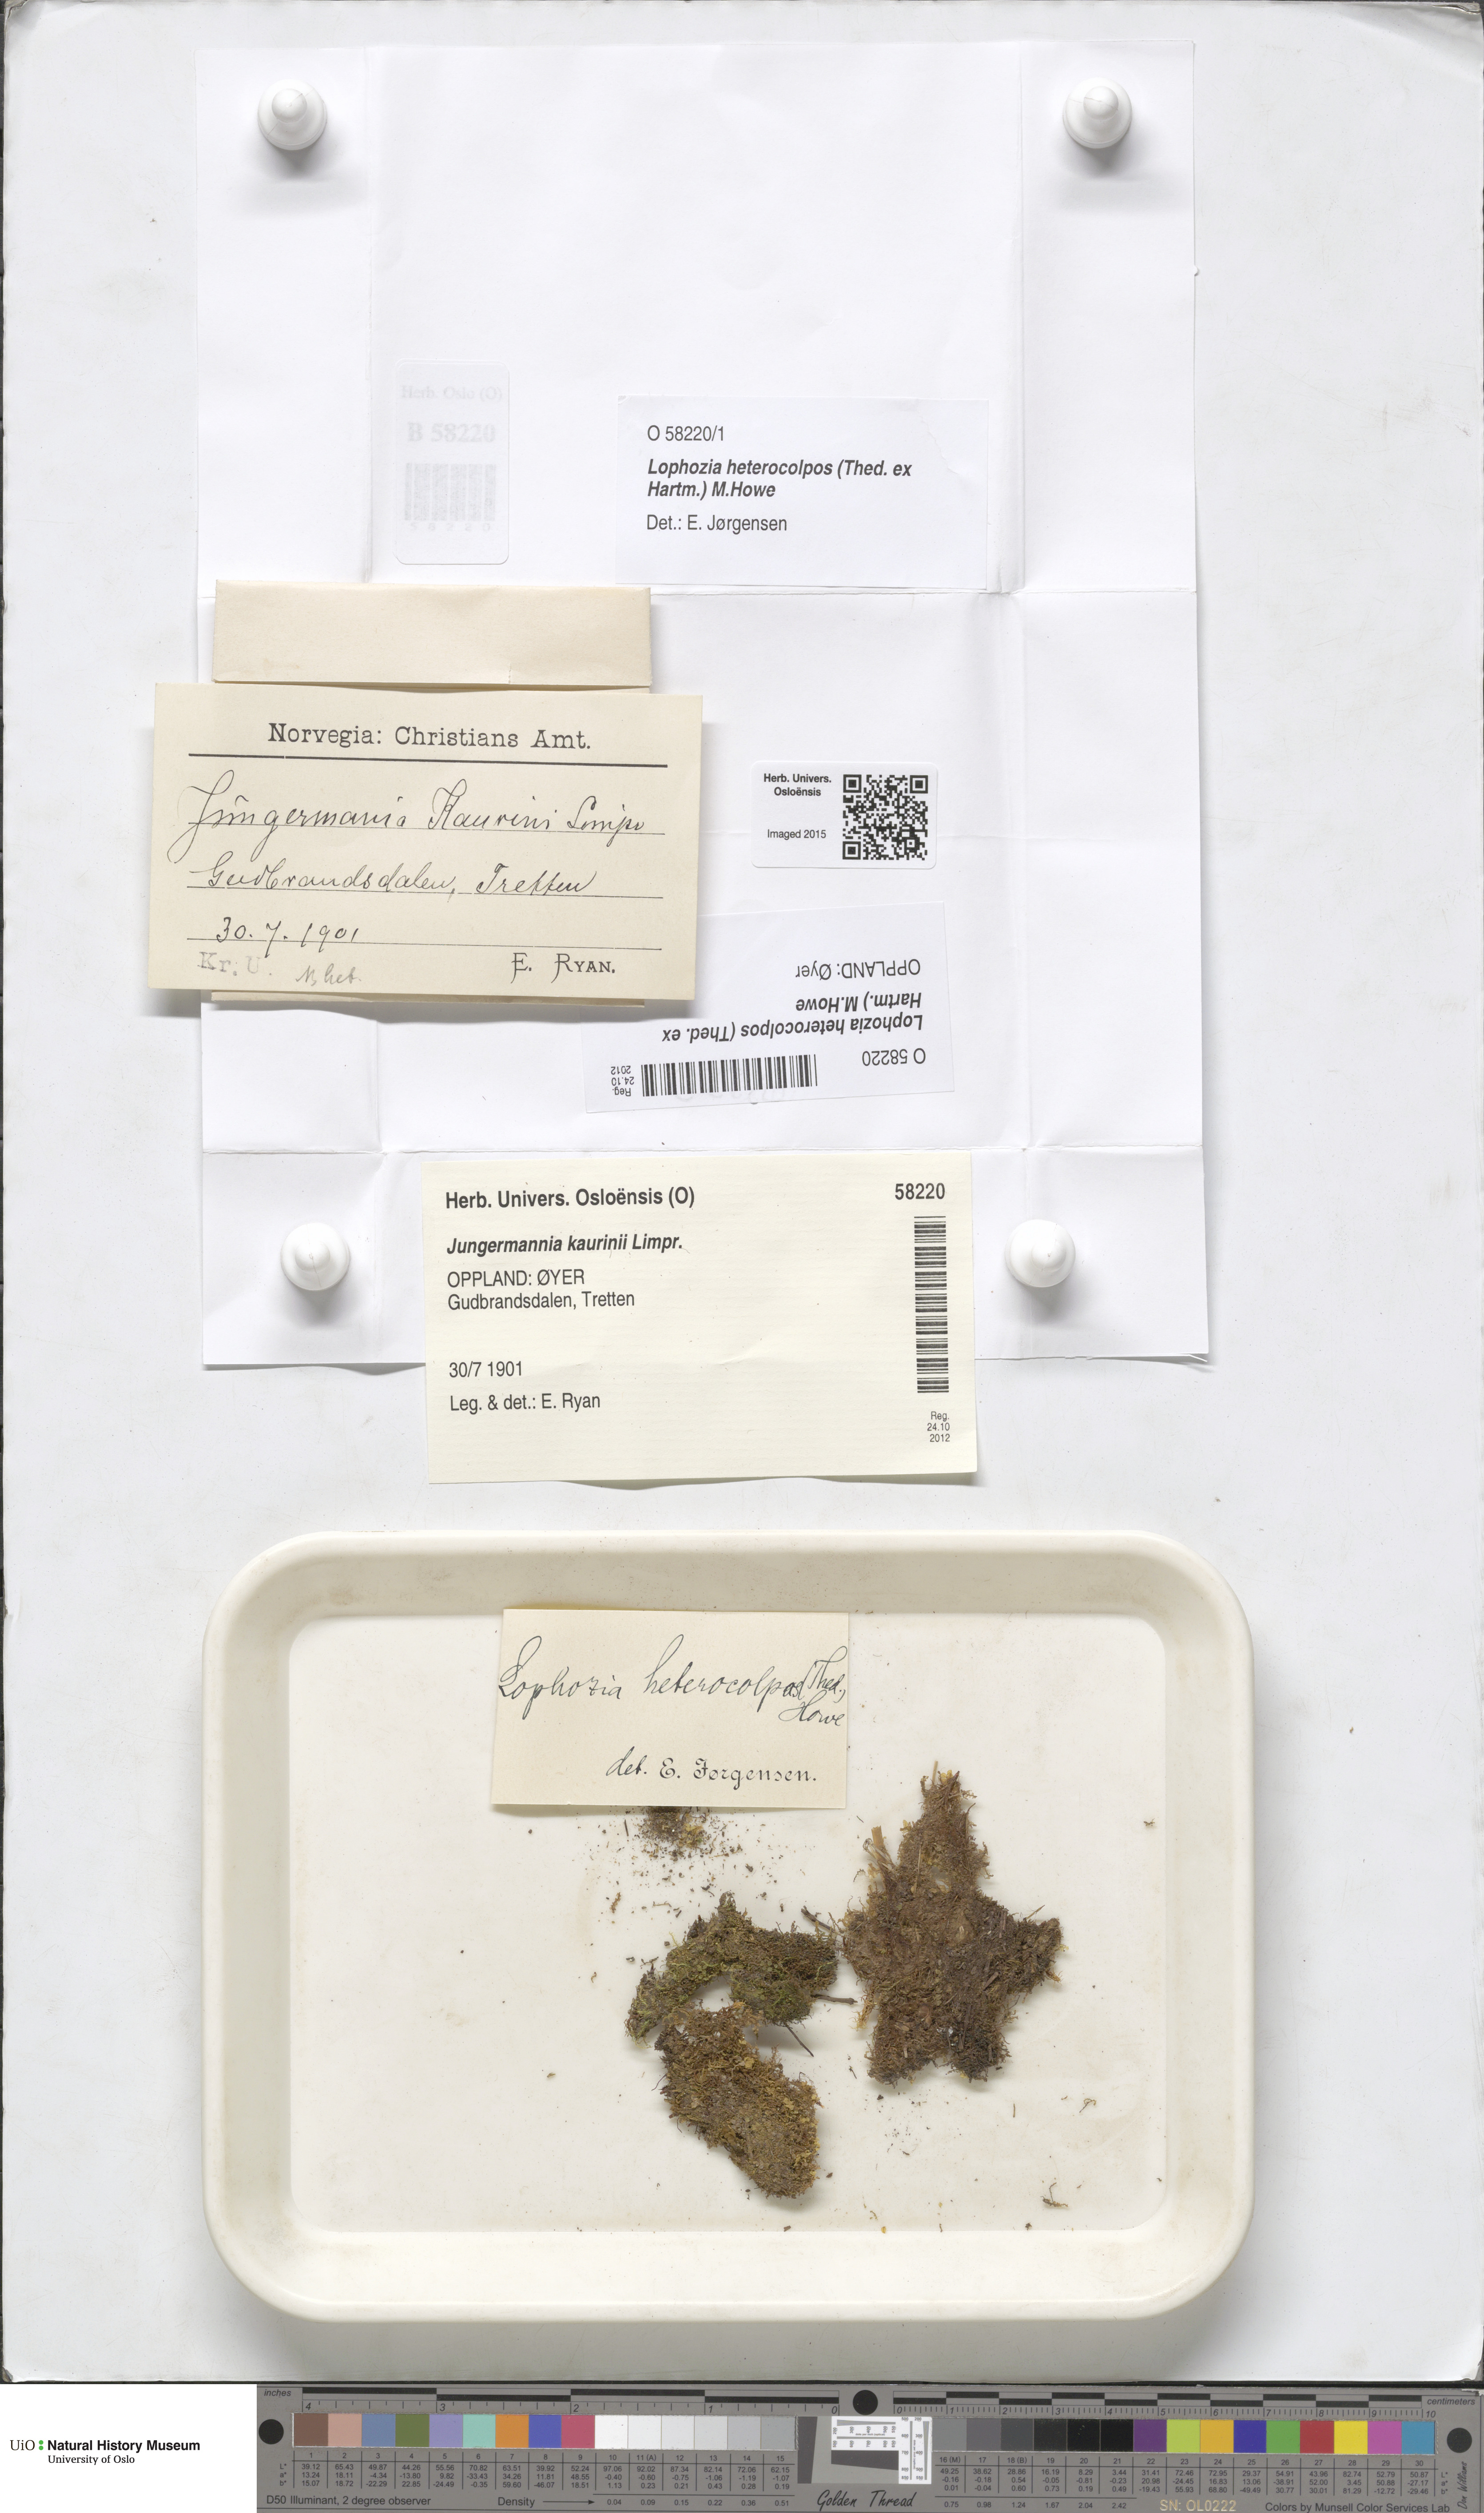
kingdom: Plantae
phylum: Marchantiophyta
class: Jungermanniopsida
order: Jungermanniales
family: Jungermanniaceae
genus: Mesoptychia
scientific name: Mesoptychia heterocolpos
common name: Ragged notchwort
